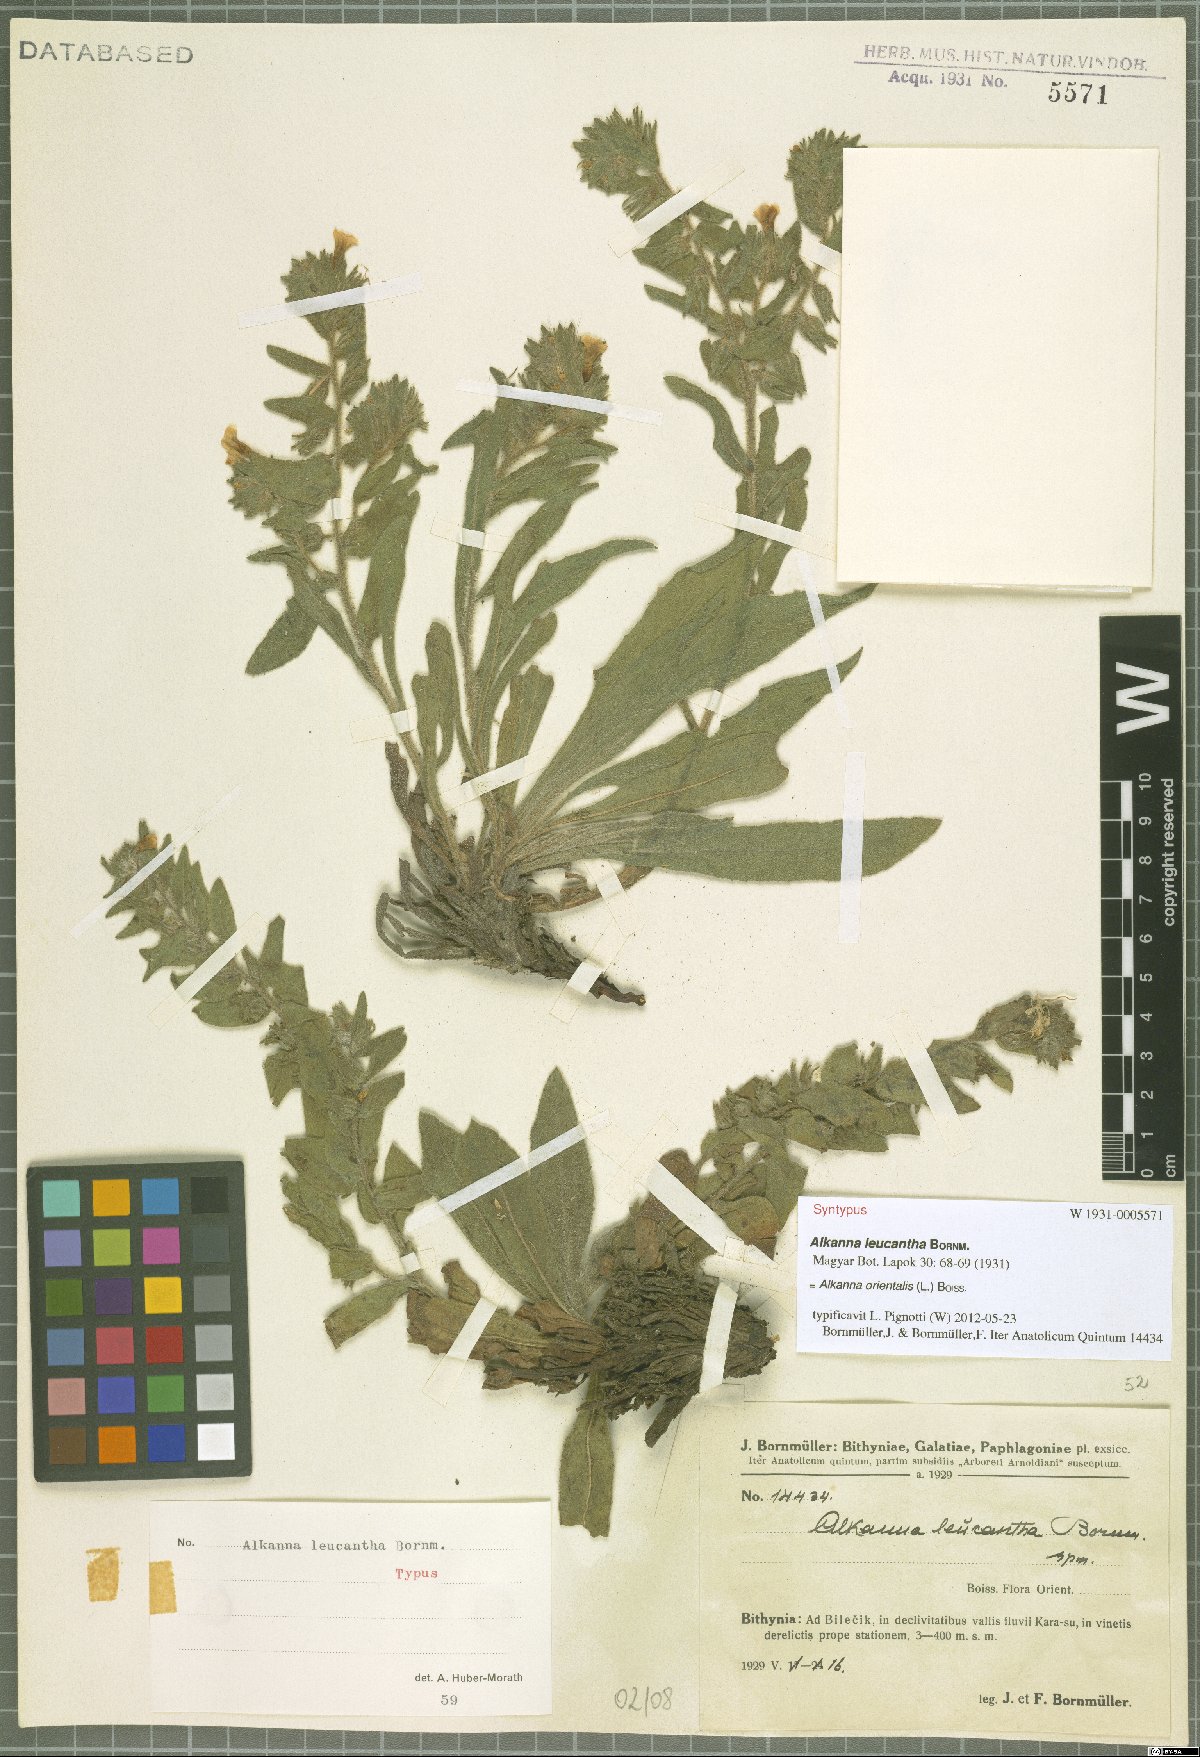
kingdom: Plantae
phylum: Tracheophyta
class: Magnoliopsida
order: Boraginales
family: Boraginaceae
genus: Alkanna
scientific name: Alkanna orientalis
